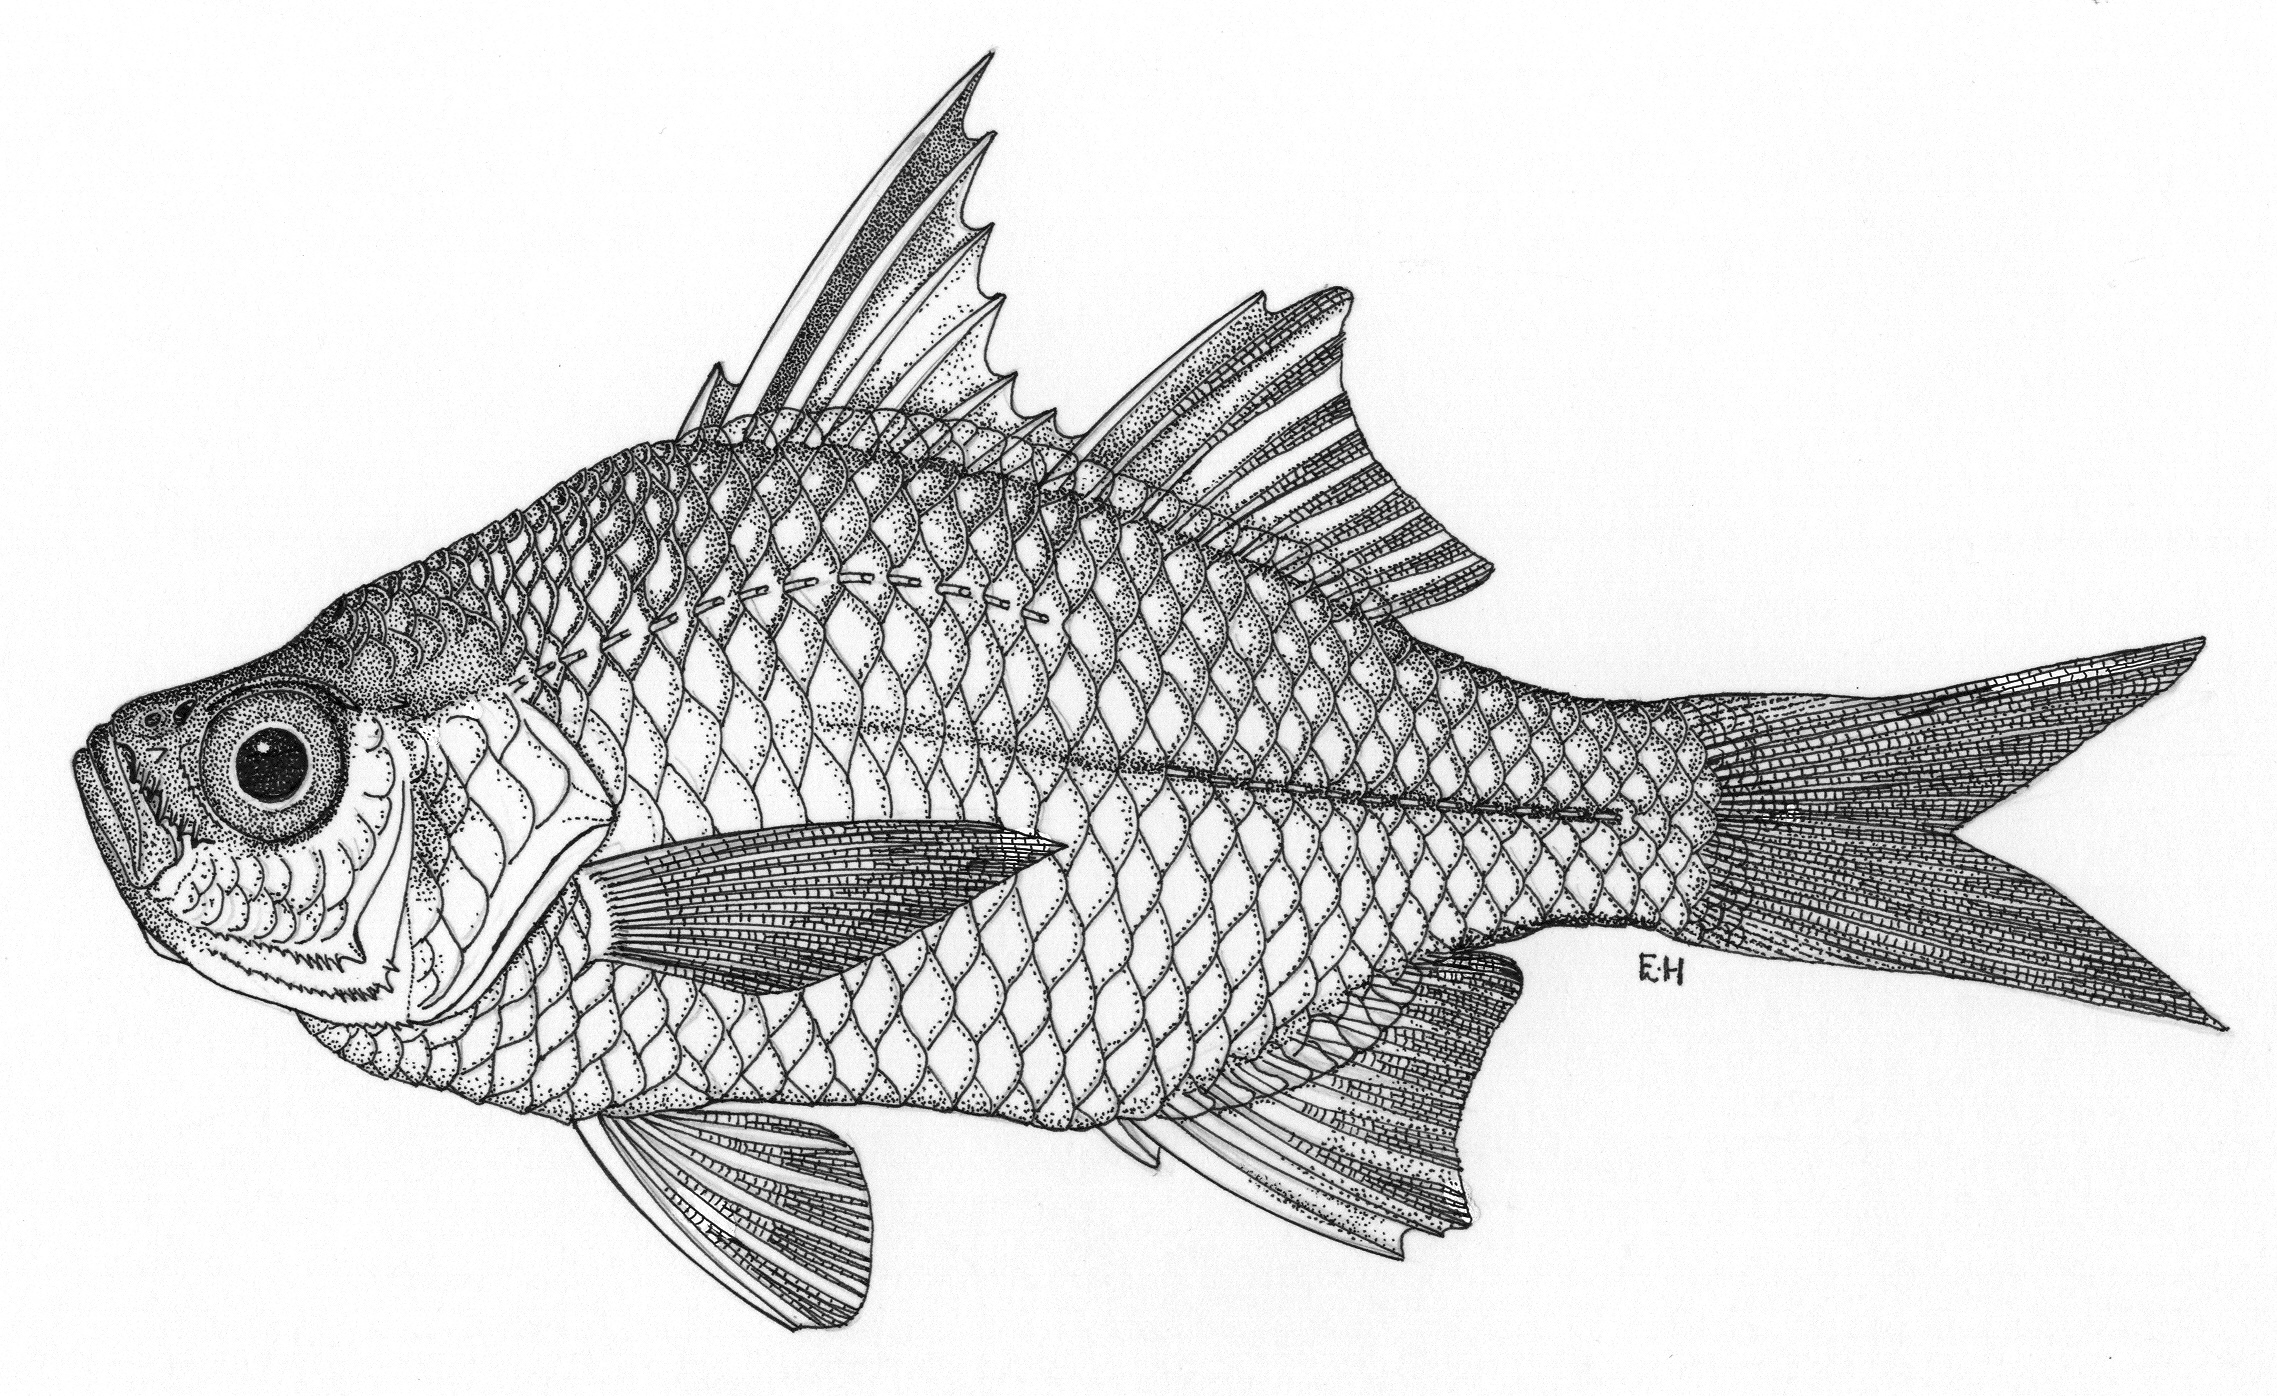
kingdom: Animalia
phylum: Chordata
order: Perciformes
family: Ambassidae
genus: Ambassis
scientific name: Ambassis interrupta
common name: Glassfish
